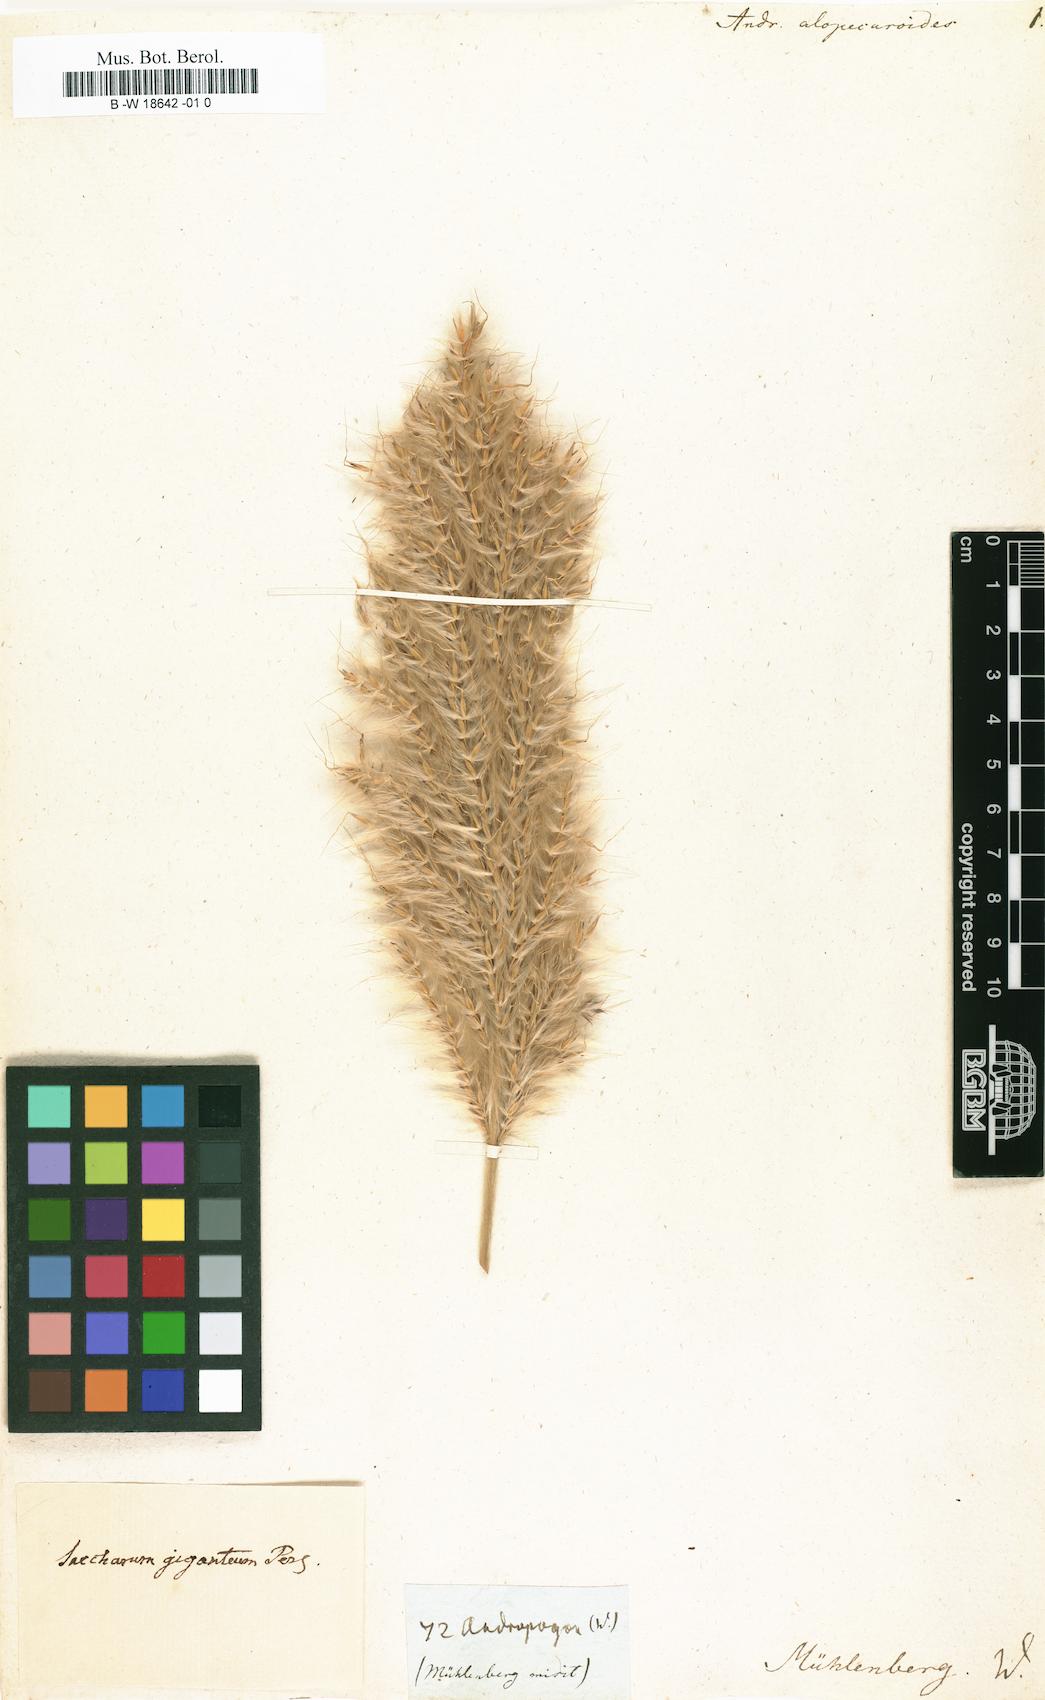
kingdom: Plantae
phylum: Tracheophyta
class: Liliopsida
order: Poales
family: Poaceae
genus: Erianthus
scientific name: Erianthus alopecuroides
